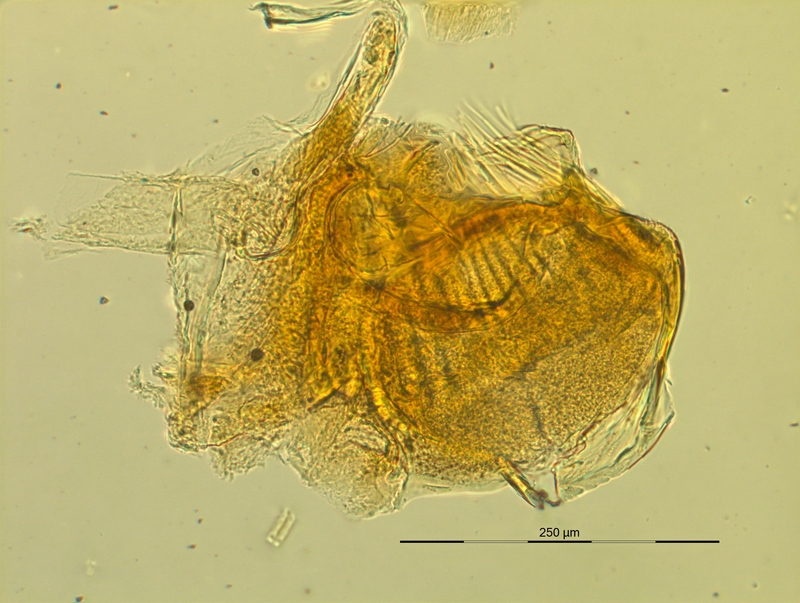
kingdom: Animalia
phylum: Arthropoda
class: Diplopoda
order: Chordeumatida
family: Craspedosomatidae
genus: Pyrgocyphosoma
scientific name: Pyrgocyphosoma ormeanum
